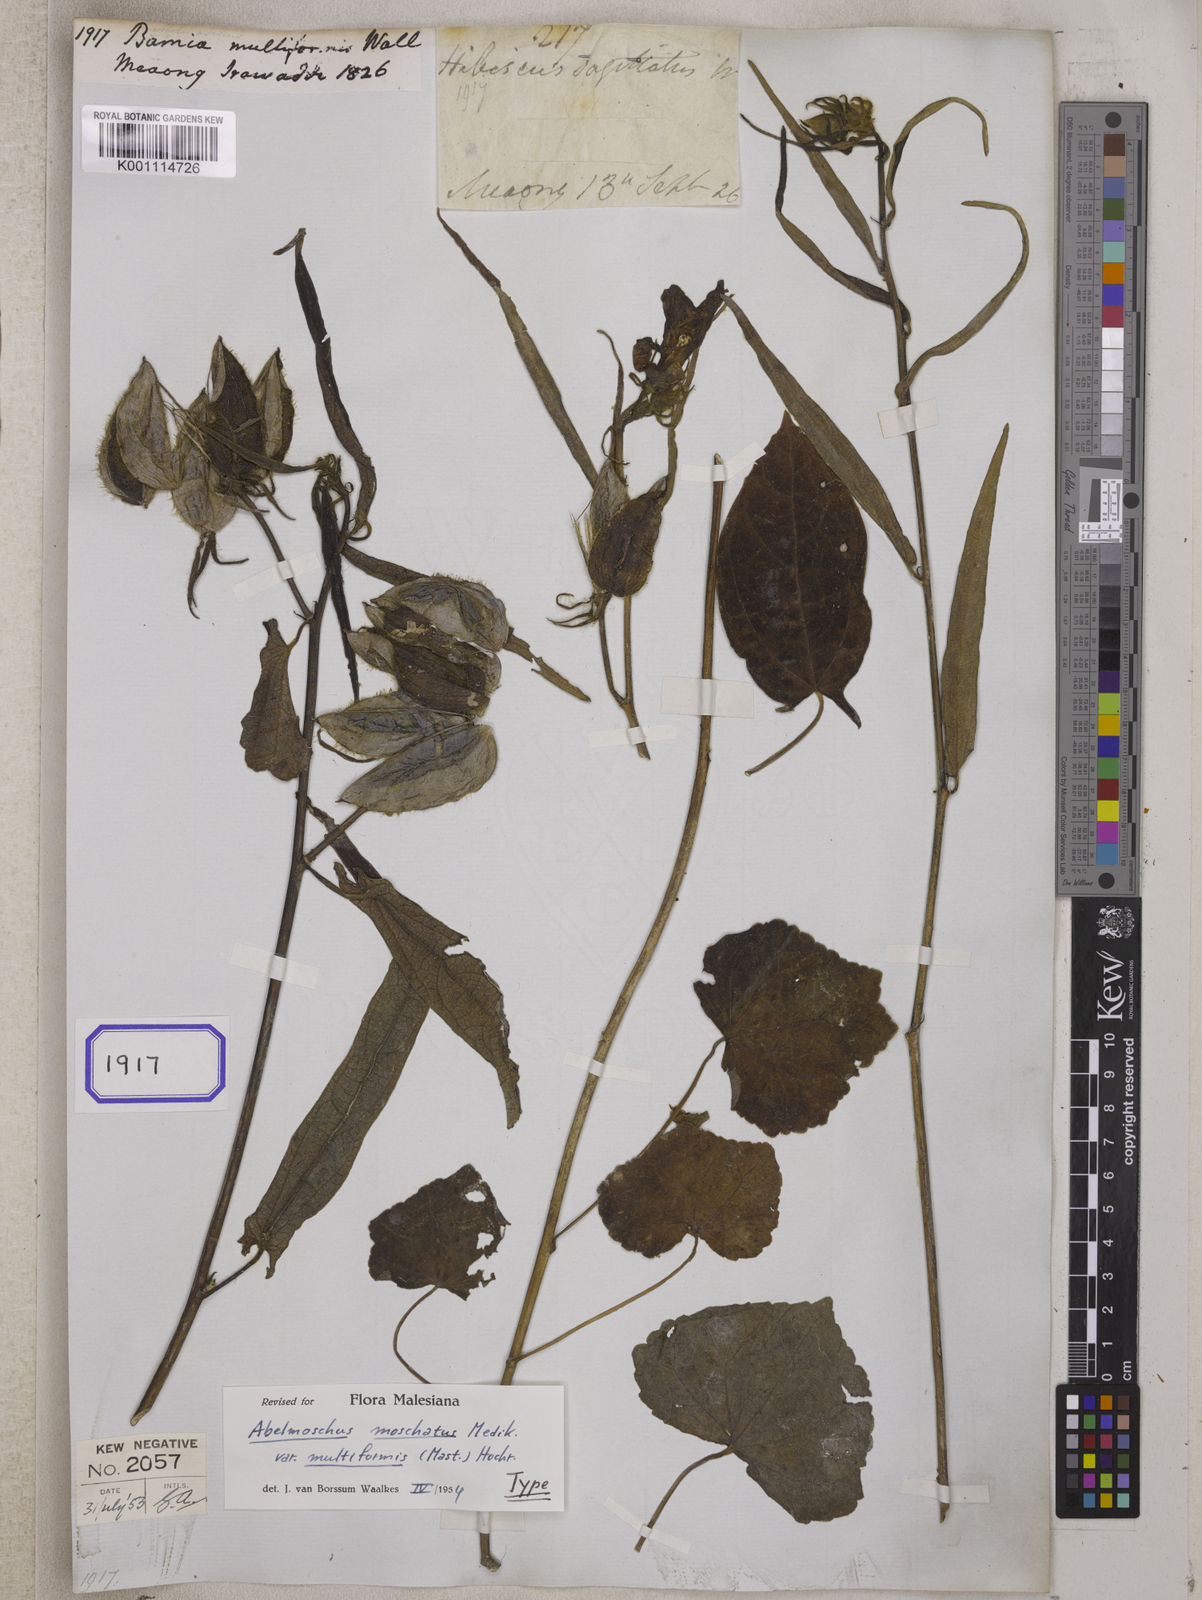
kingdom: Plantae
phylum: Tracheophyta
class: Magnoliopsida
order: Malvales
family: Malvaceae
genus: Bamia
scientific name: Bamia
